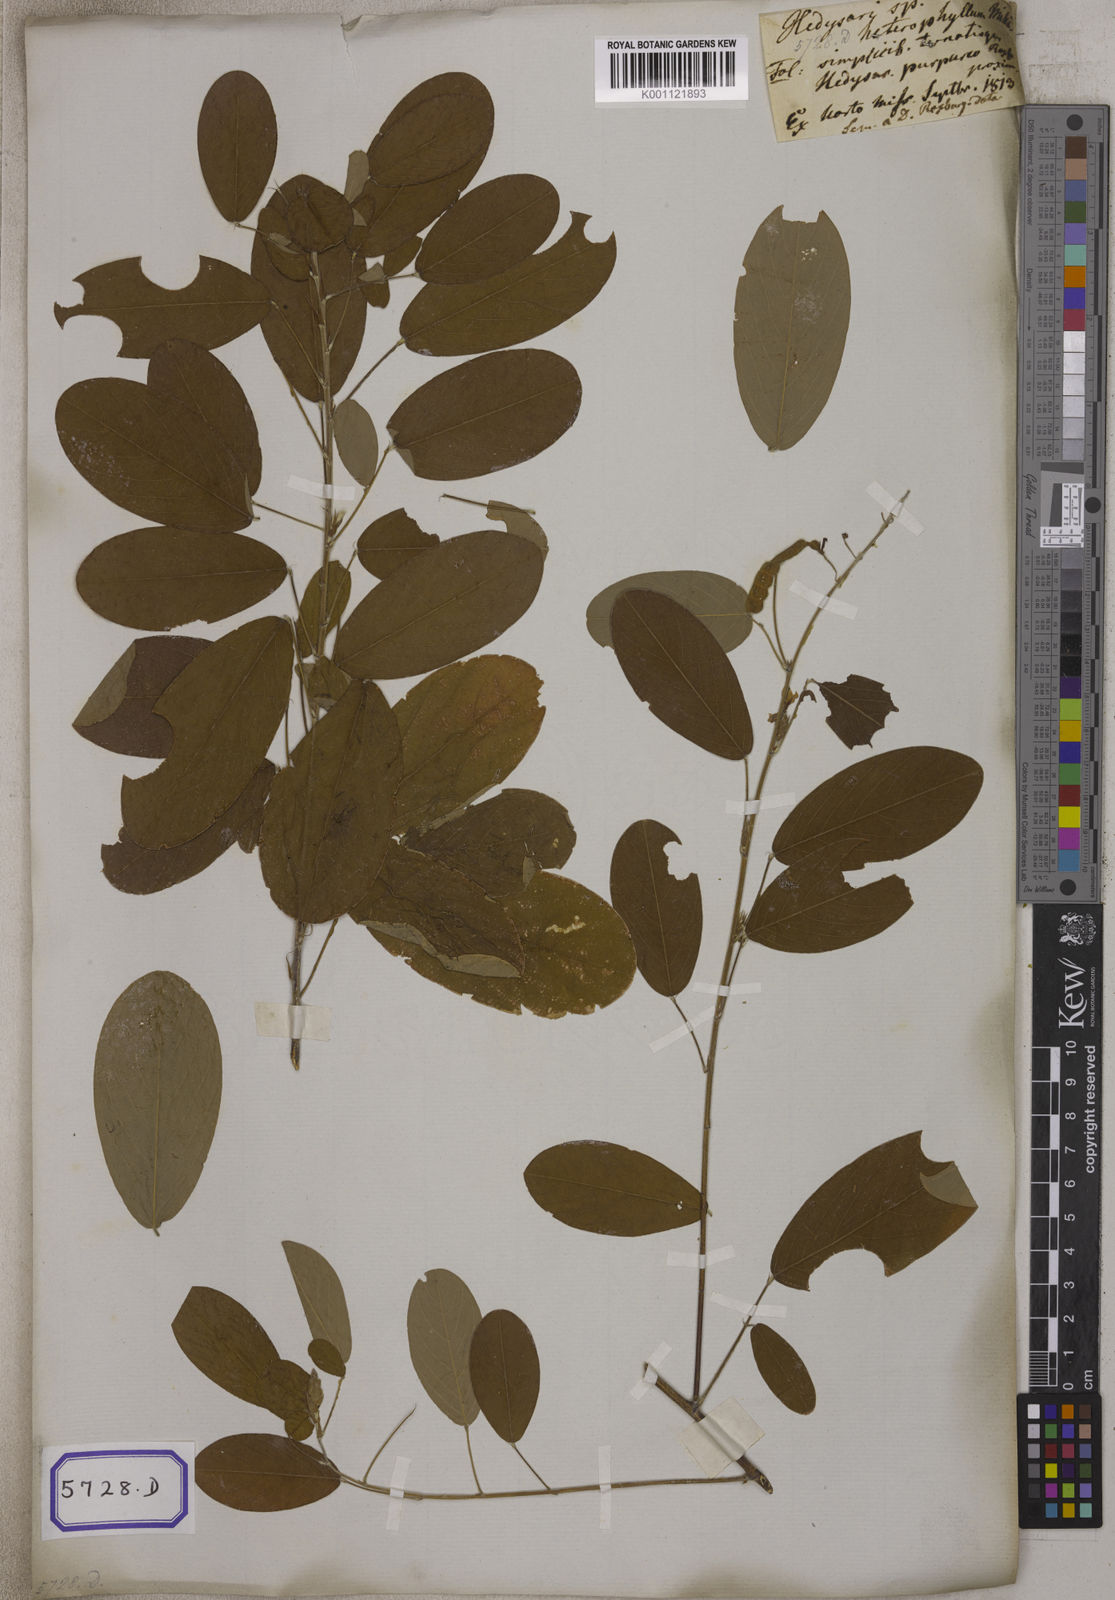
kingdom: Plantae
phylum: Tracheophyta
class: Magnoliopsida
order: Fabales
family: Fabaceae
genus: Codariocalyx
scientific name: Codariocalyx gyroides
